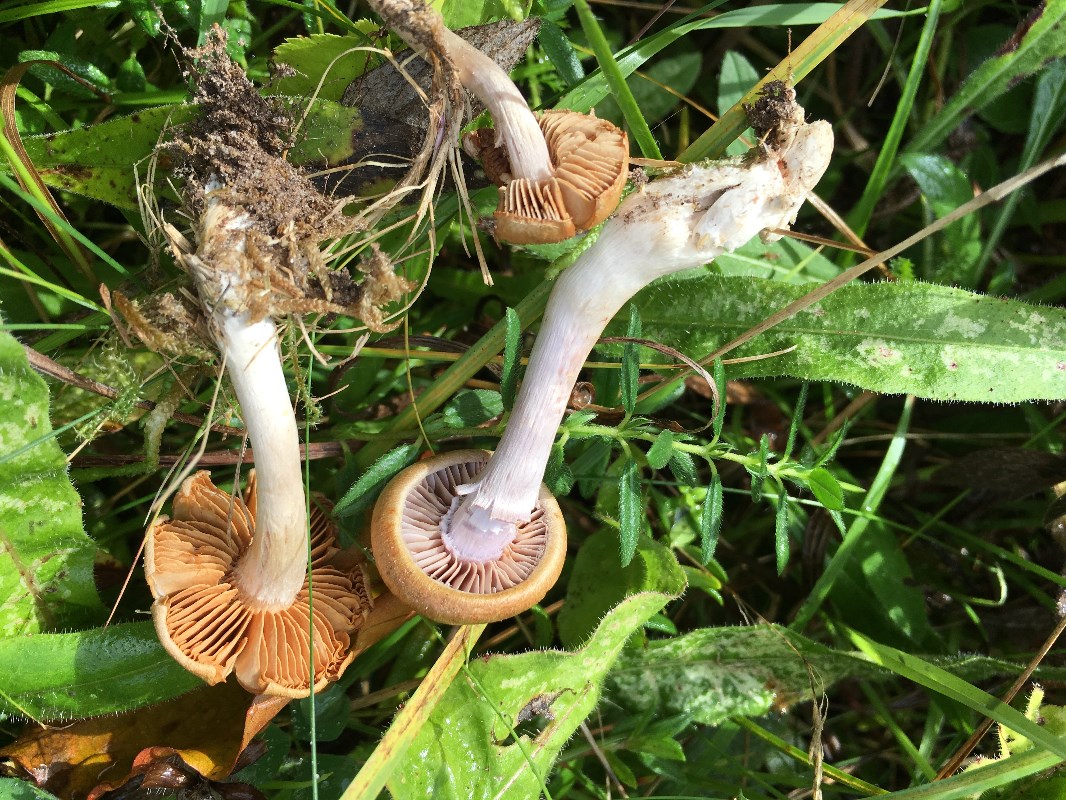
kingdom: Fungi
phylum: Basidiomycota
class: Agaricomycetes
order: Agaricales
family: Cortinariaceae
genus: Cortinarius
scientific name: Cortinarius
